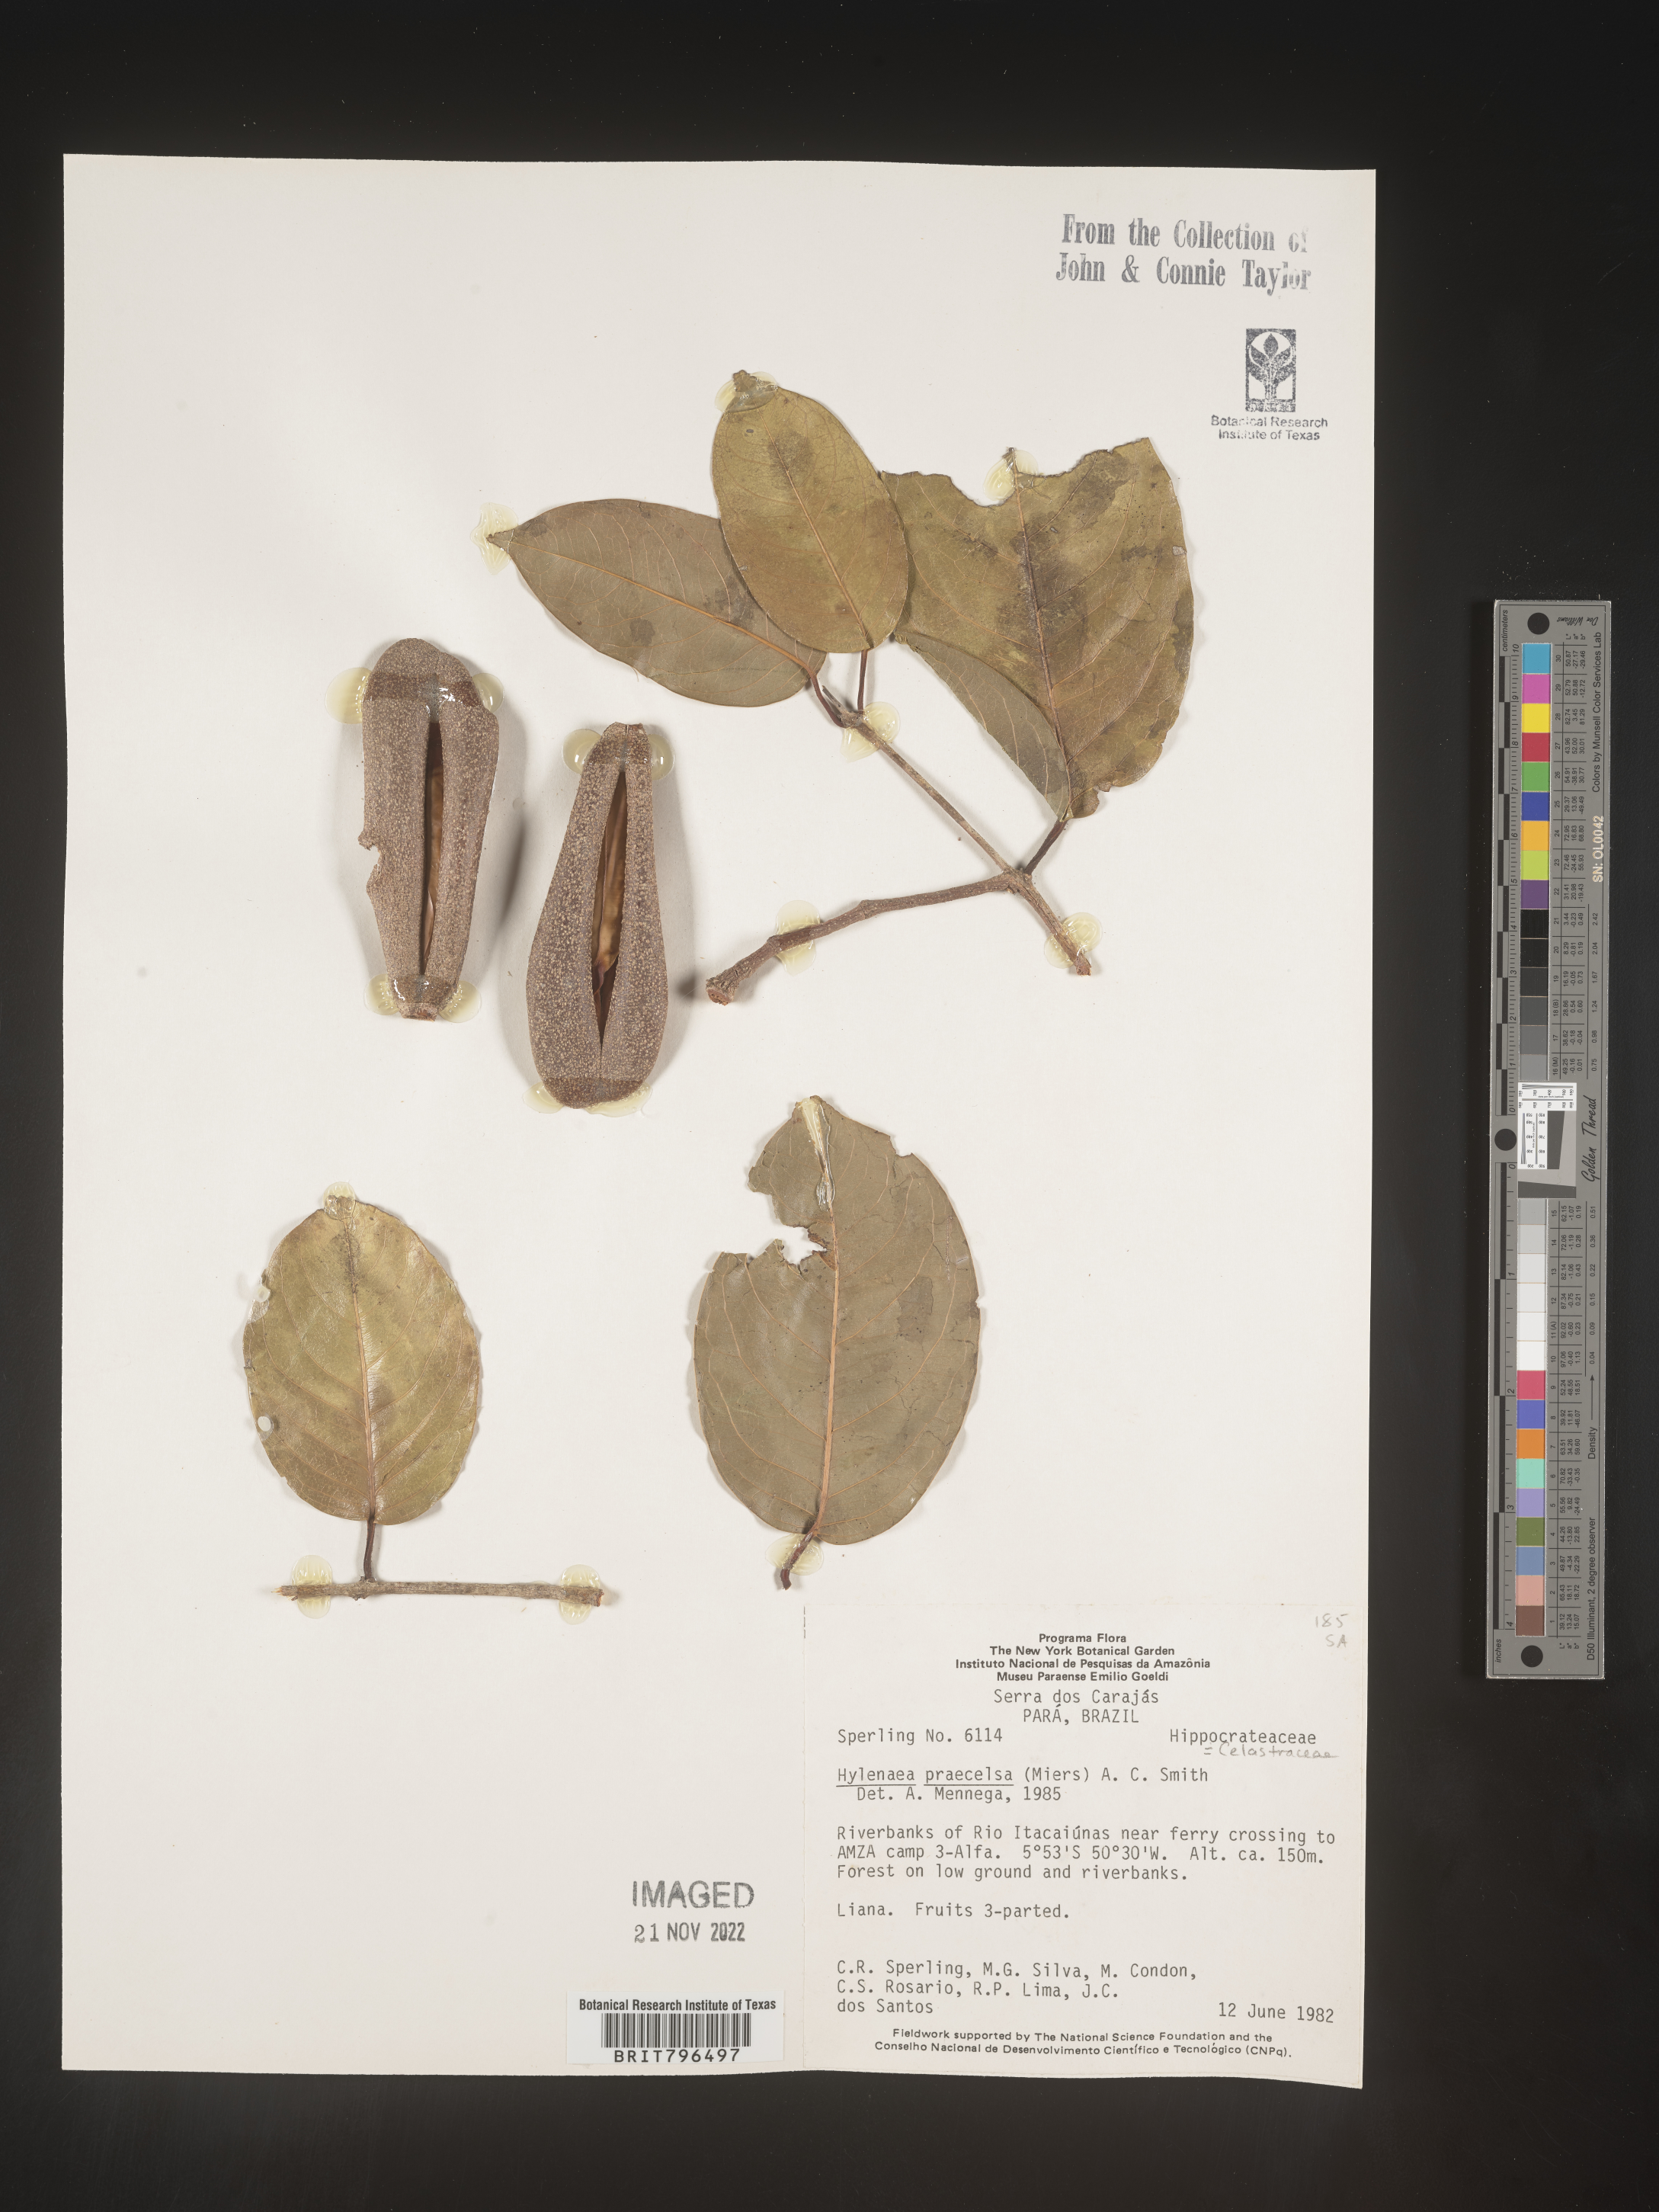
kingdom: Plantae
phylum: Tracheophyta
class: Magnoliopsida
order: Celastrales
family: Celastraceae
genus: Hylenaea
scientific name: Hylenaea praecelsa
